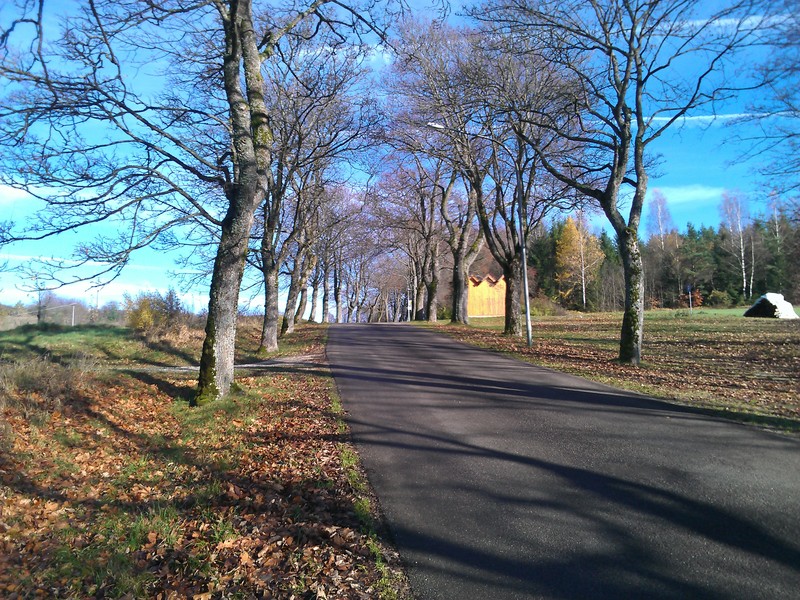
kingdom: Fungi
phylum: Basidiomycota
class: Agaricomycetes
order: Atheliales
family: Atheliaceae
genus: Athelia
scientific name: Athelia arachnoidea
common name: Candelabra duster
